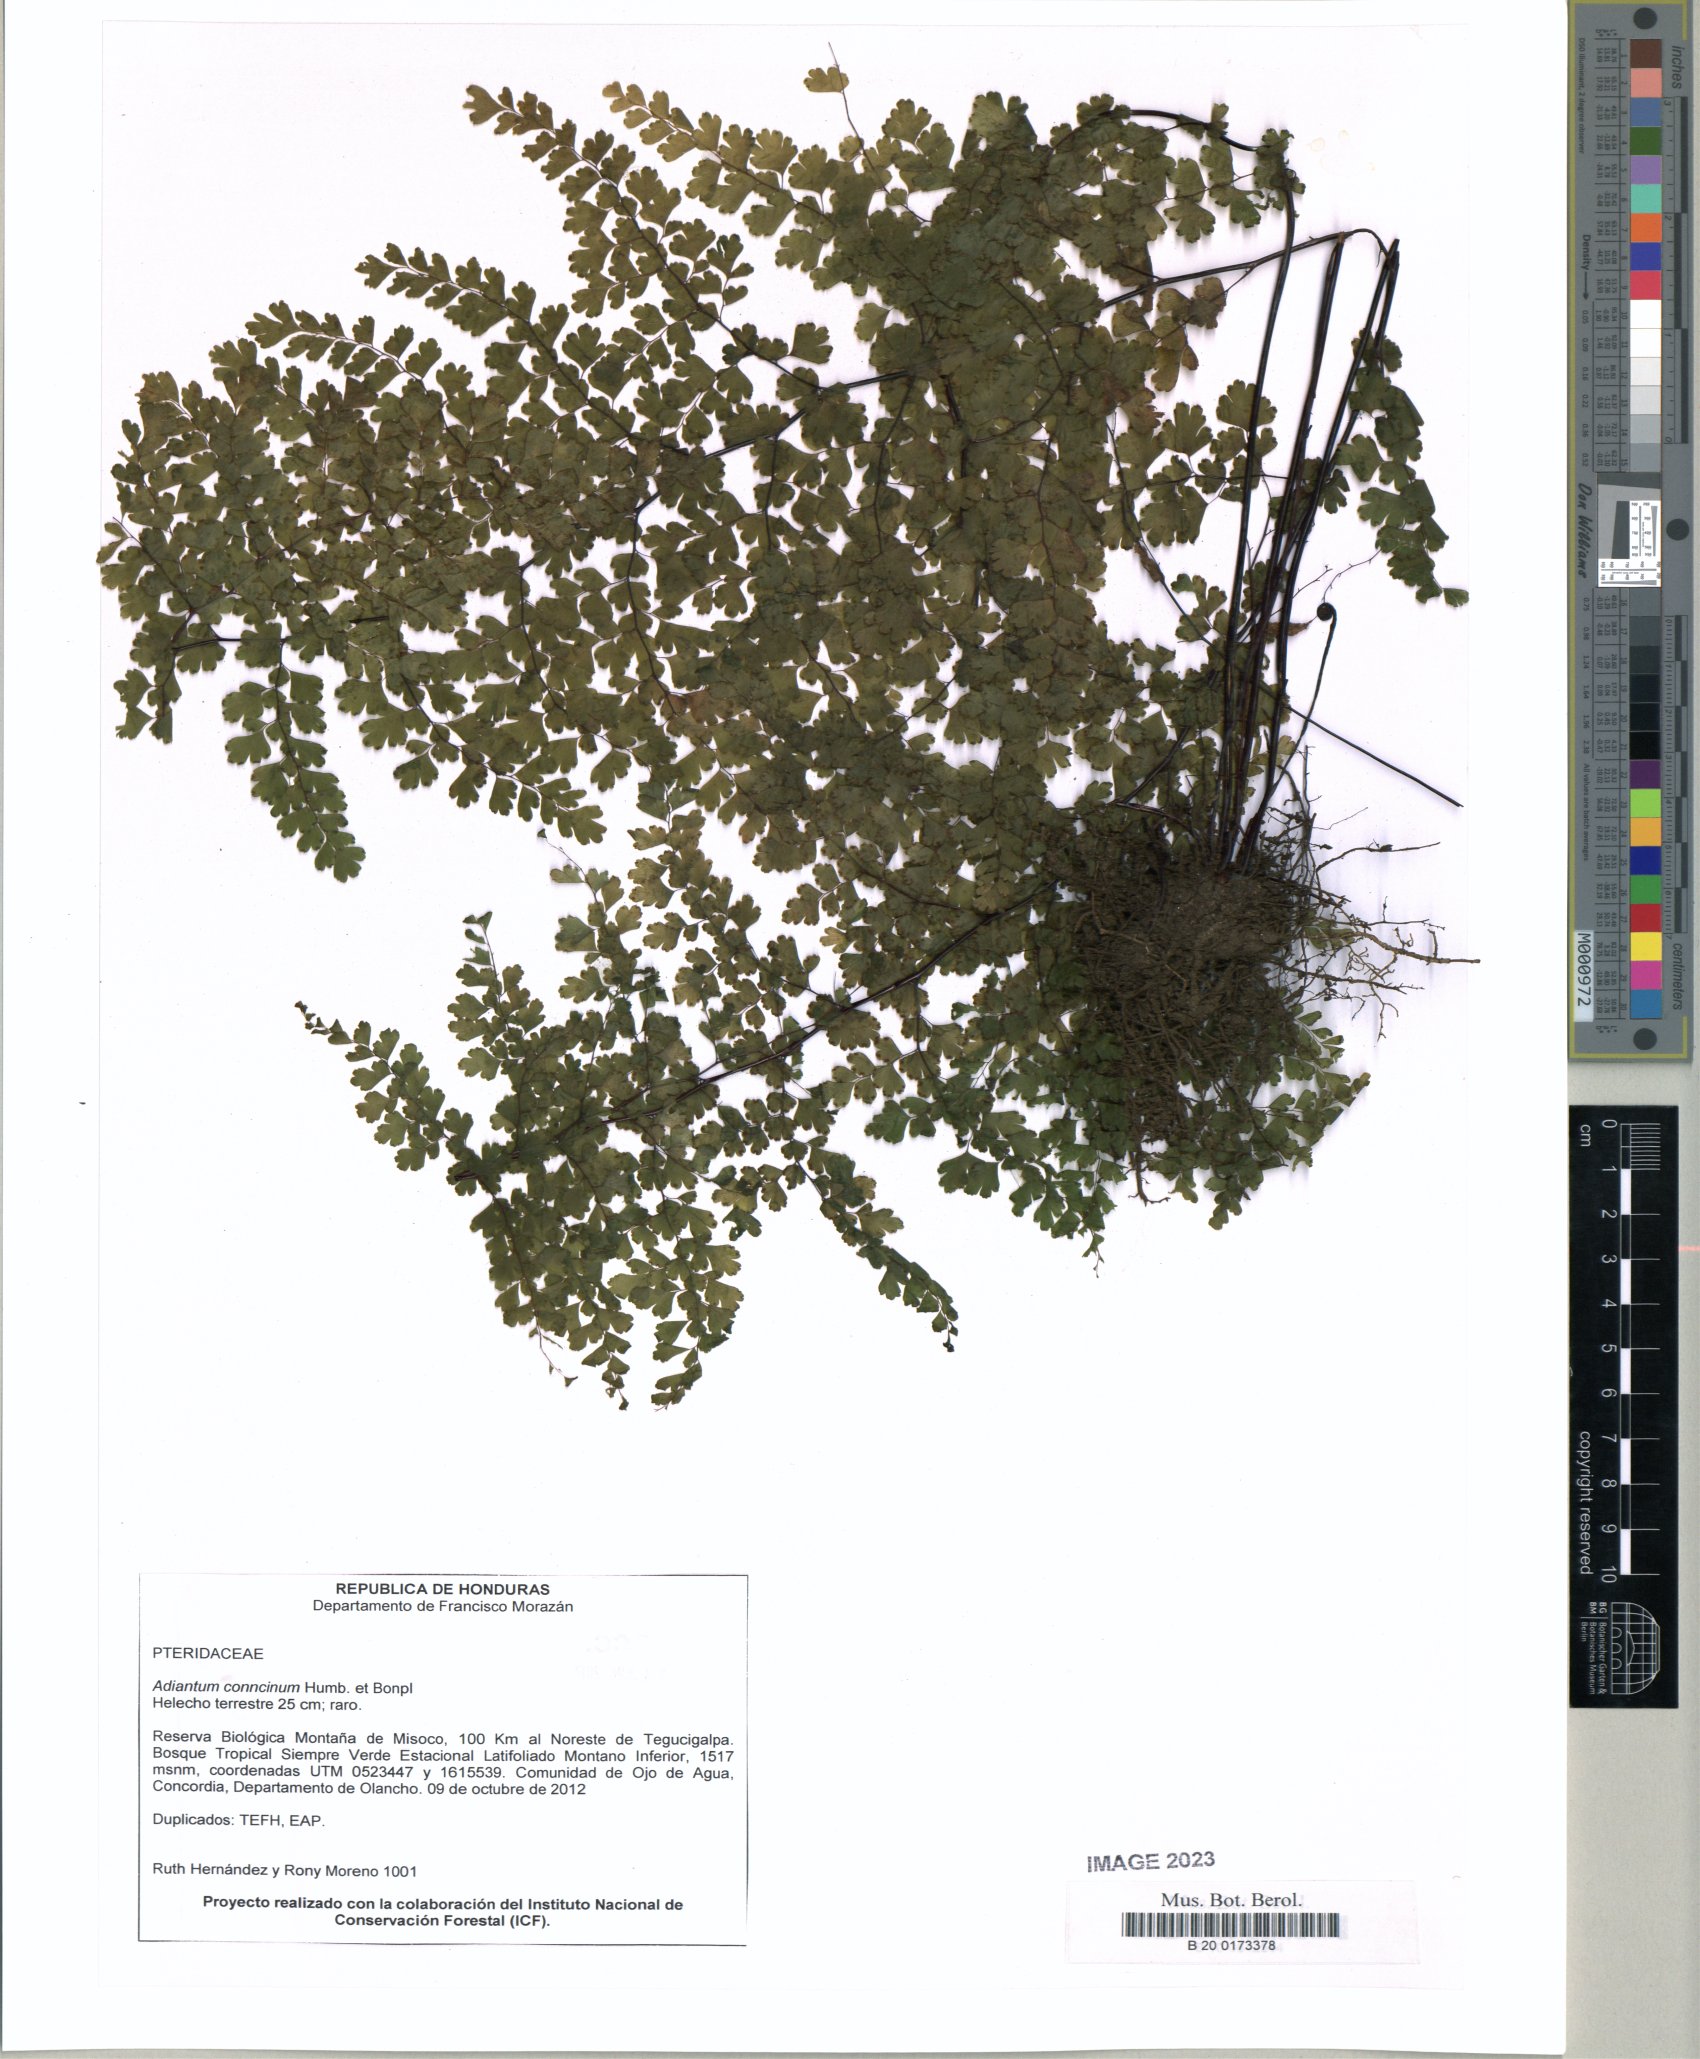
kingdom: Plantae
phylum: Tracheophyta
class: Polypodiopsida
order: Polypodiales
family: Pteridaceae
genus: Adiantum
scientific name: Adiantum concinnum
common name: Brittle maidenhair fern
